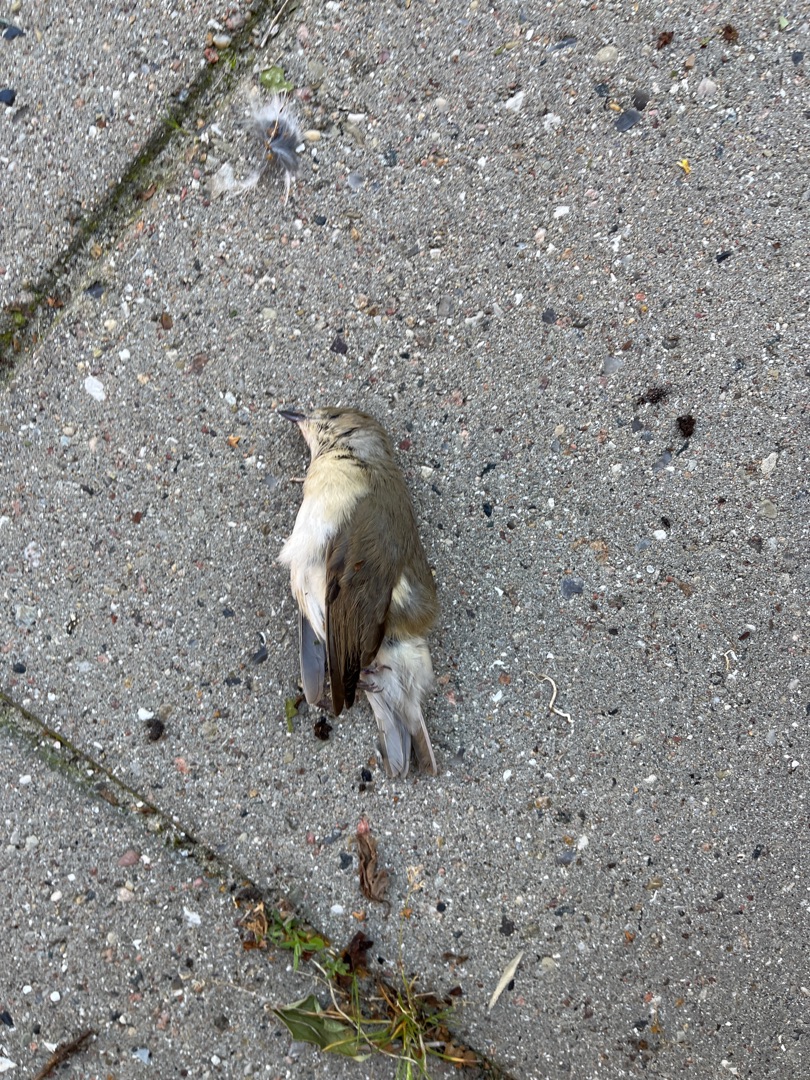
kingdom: Animalia
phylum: Chordata
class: Aves
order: Passeriformes
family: Sylviidae
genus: Sylvia
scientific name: Sylvia borin
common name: Havesanger
